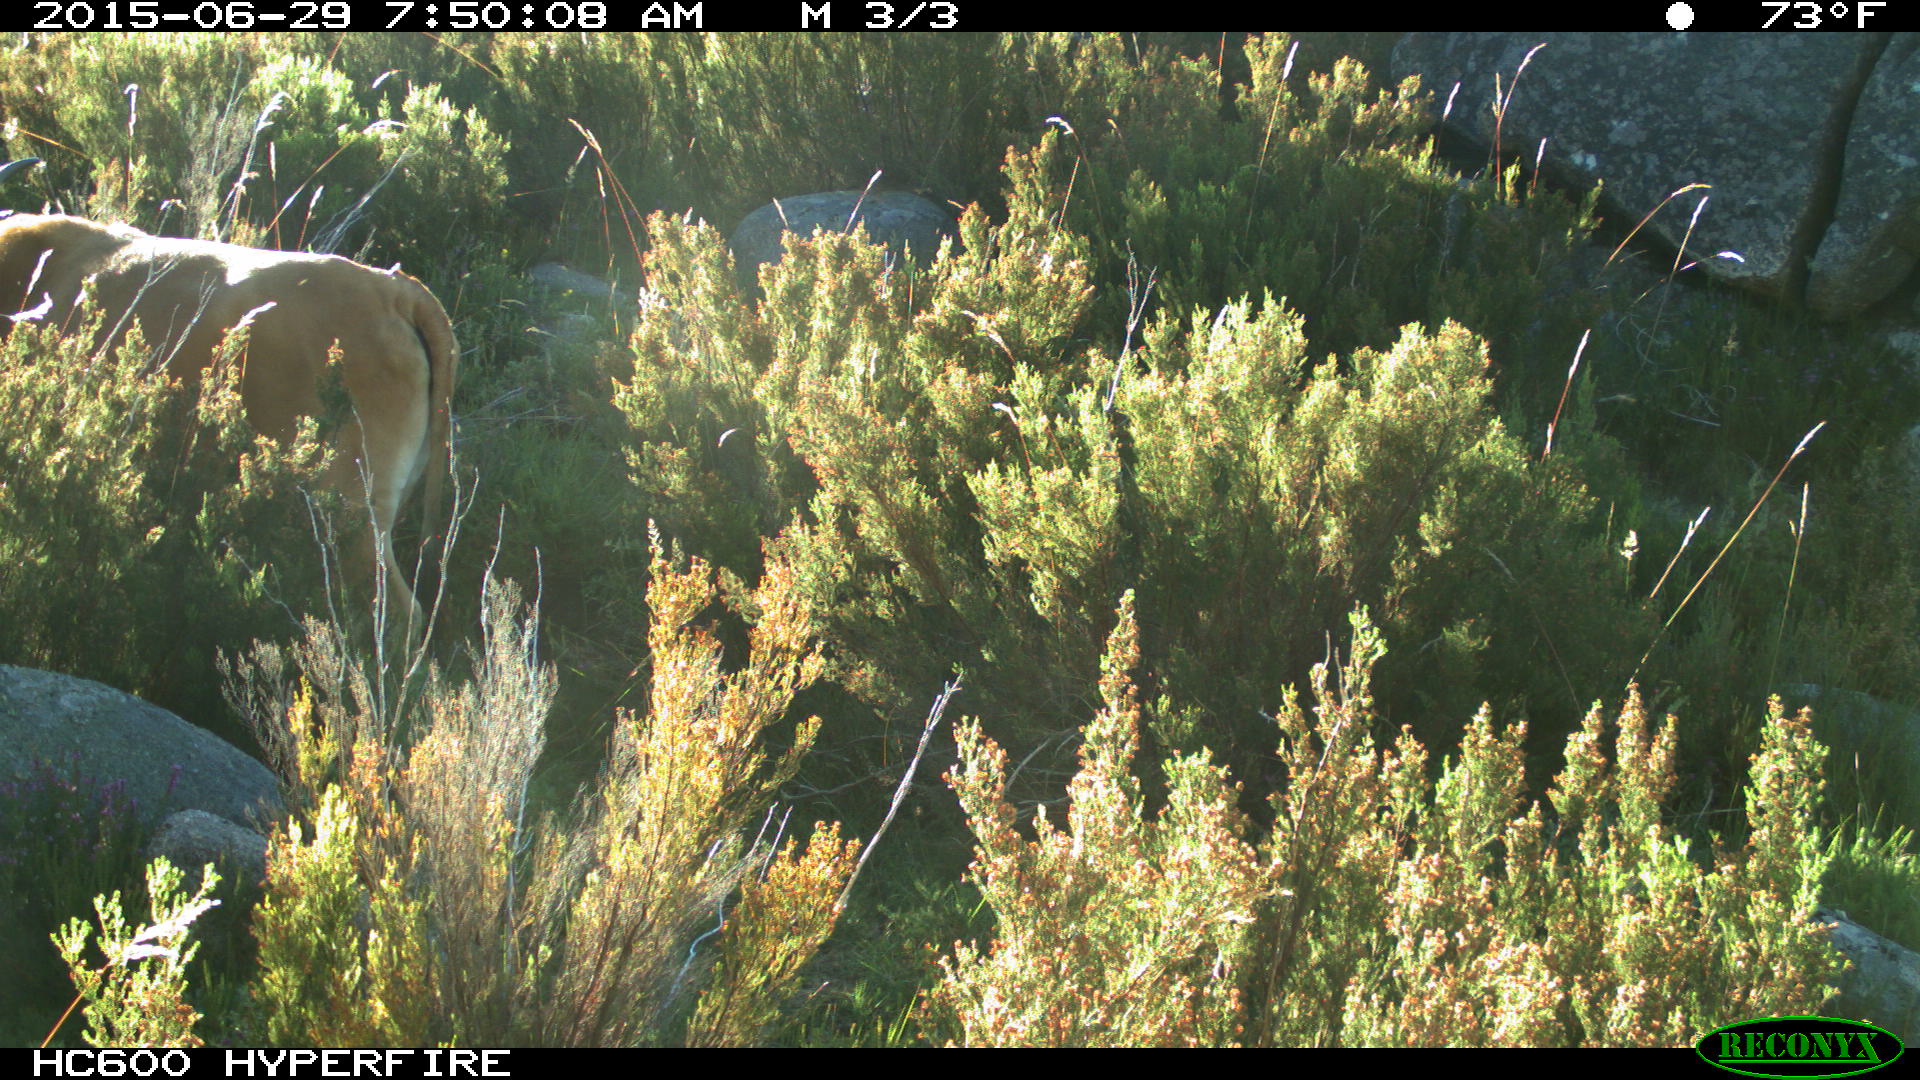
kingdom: Animalia
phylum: Chordata
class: Mammalia
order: Artiodactyla
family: Bovidae
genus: Bos
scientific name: Bos taurus
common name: Domesticated cattle
